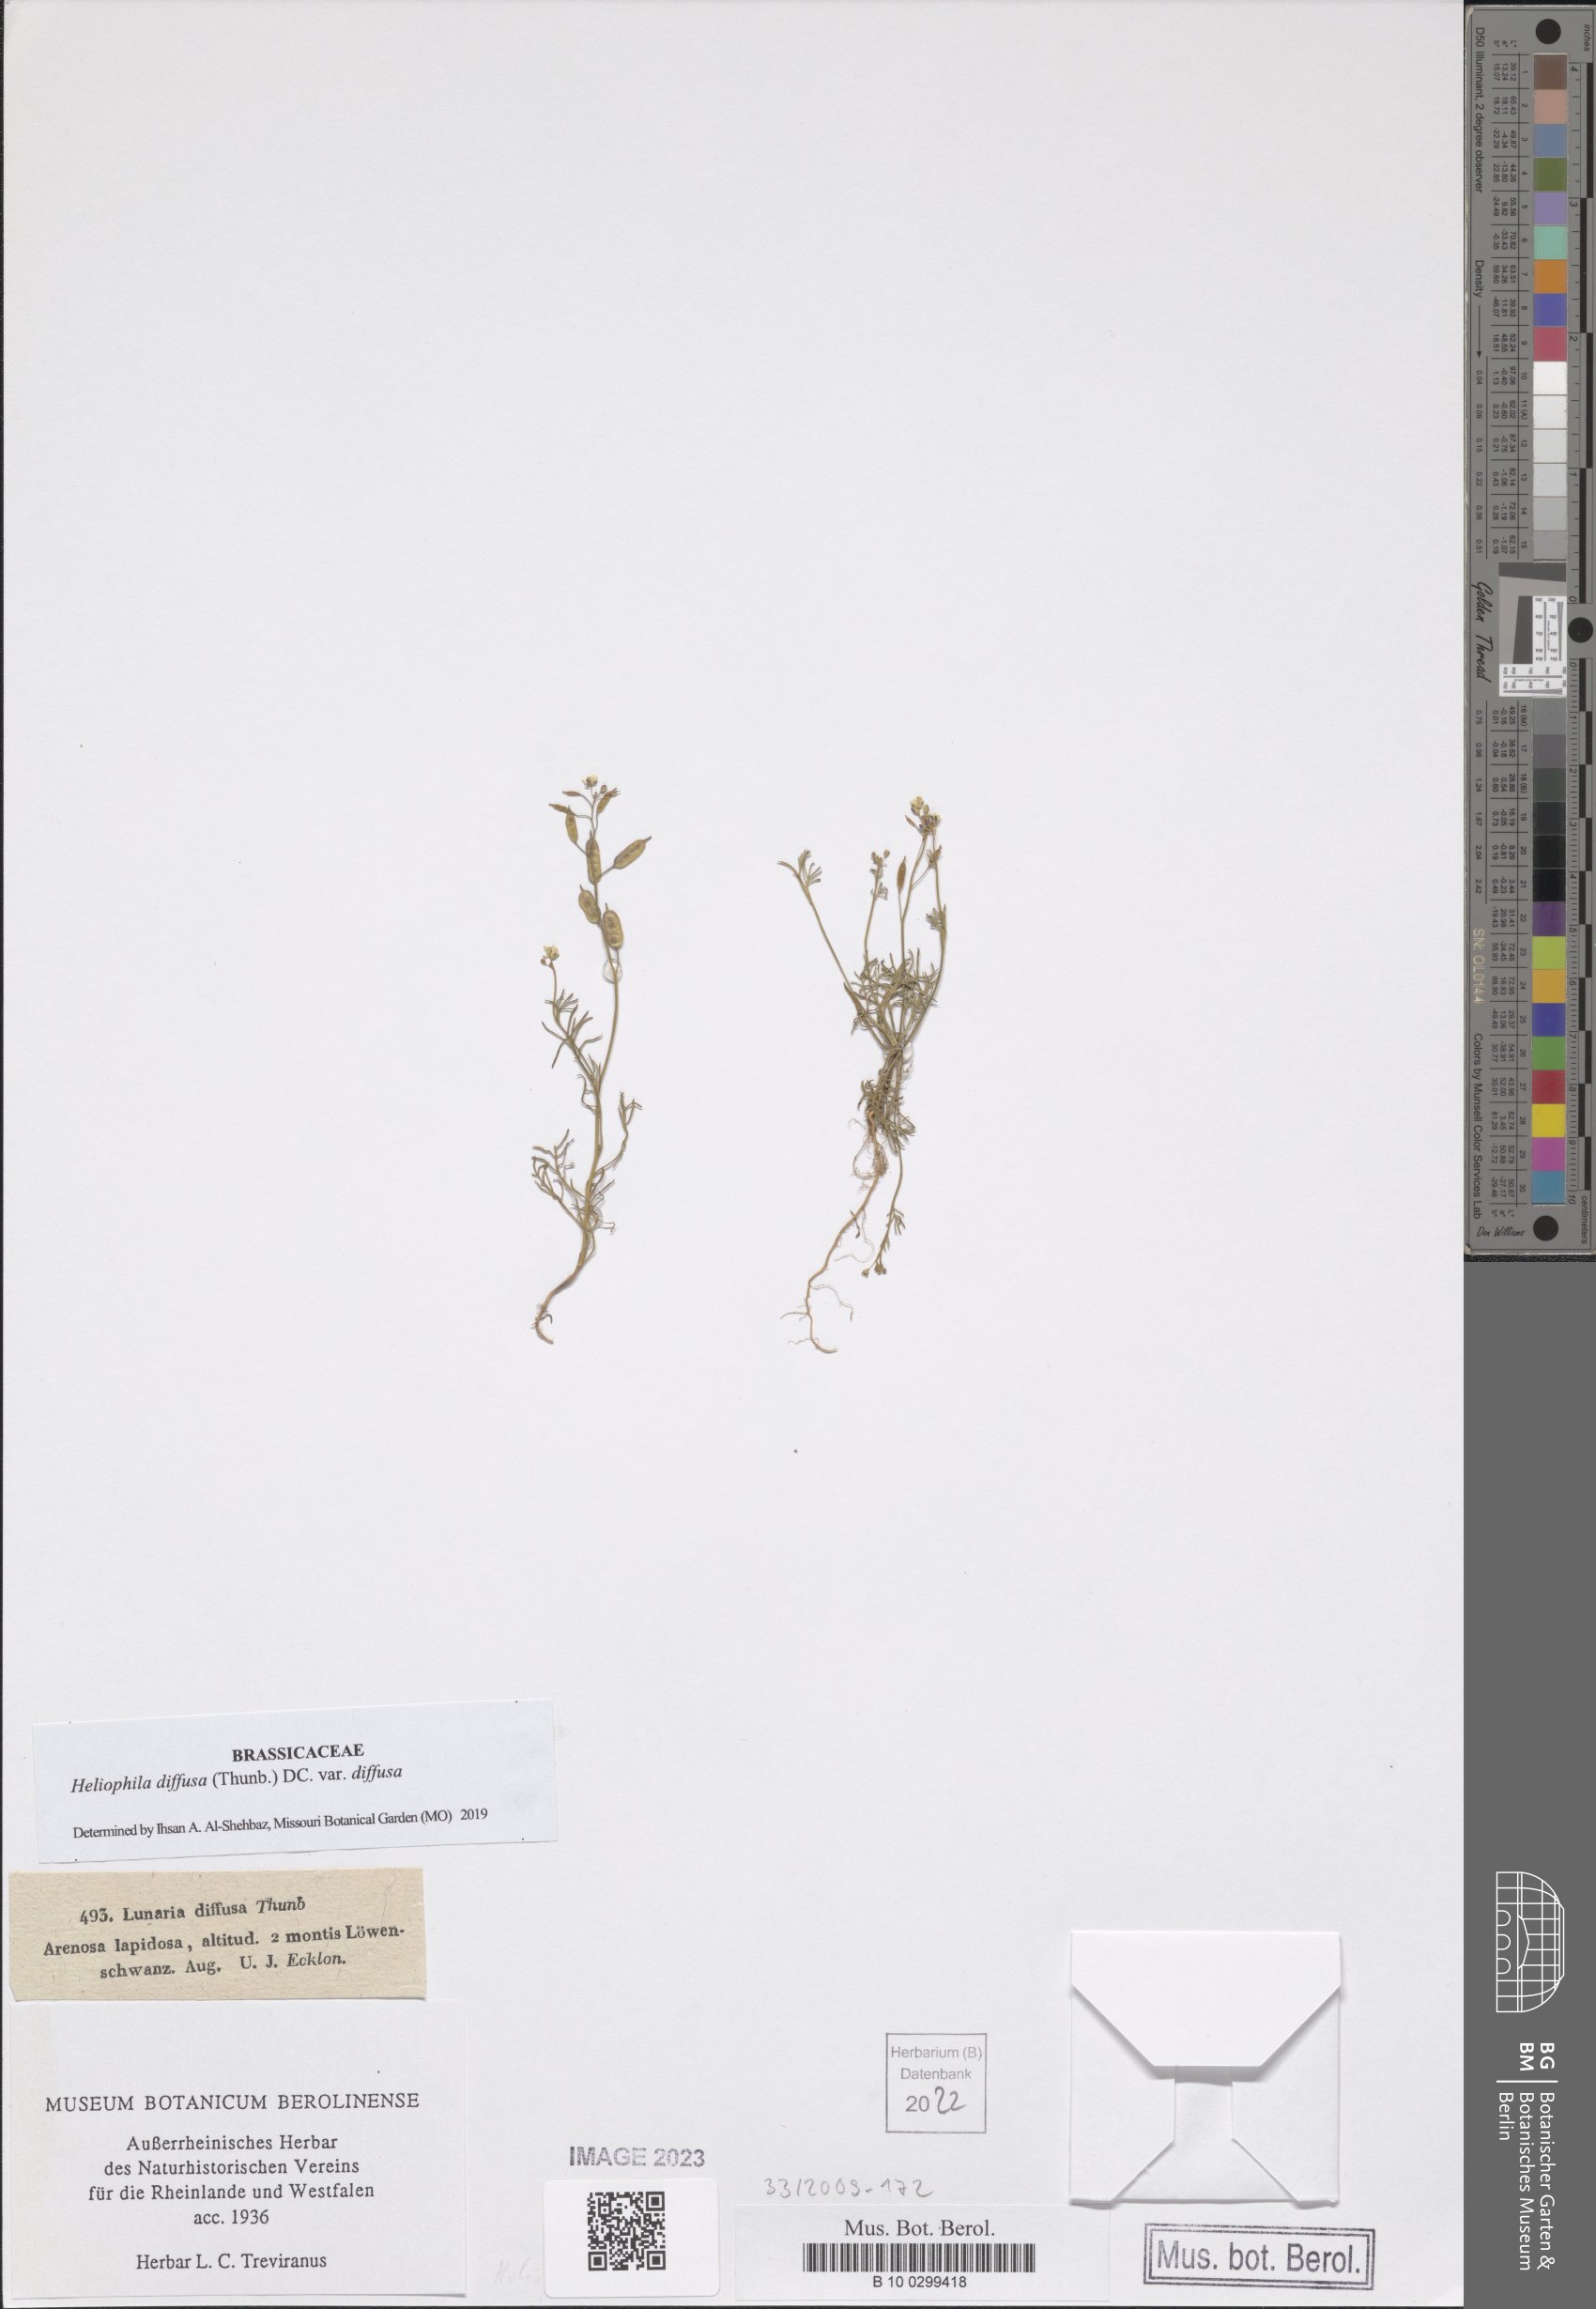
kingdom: Plantae
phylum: Tracheophyta
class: Magnoliopsida
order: Brassicales
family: Brassicaceae
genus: Heliophila
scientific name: Heliophila diffusa
